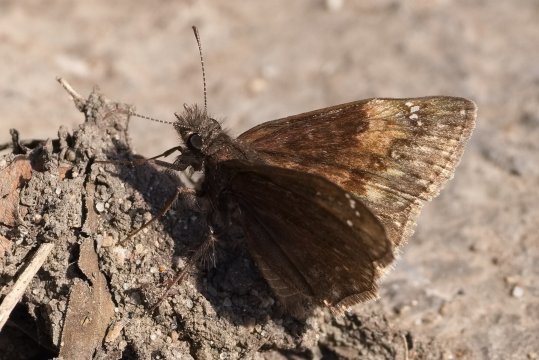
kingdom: Animalia
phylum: Arthropoda
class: Insecta
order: Lepidoptera
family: Hesperiidae
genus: Gesta
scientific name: Gesta
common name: Columbine Duskywing
